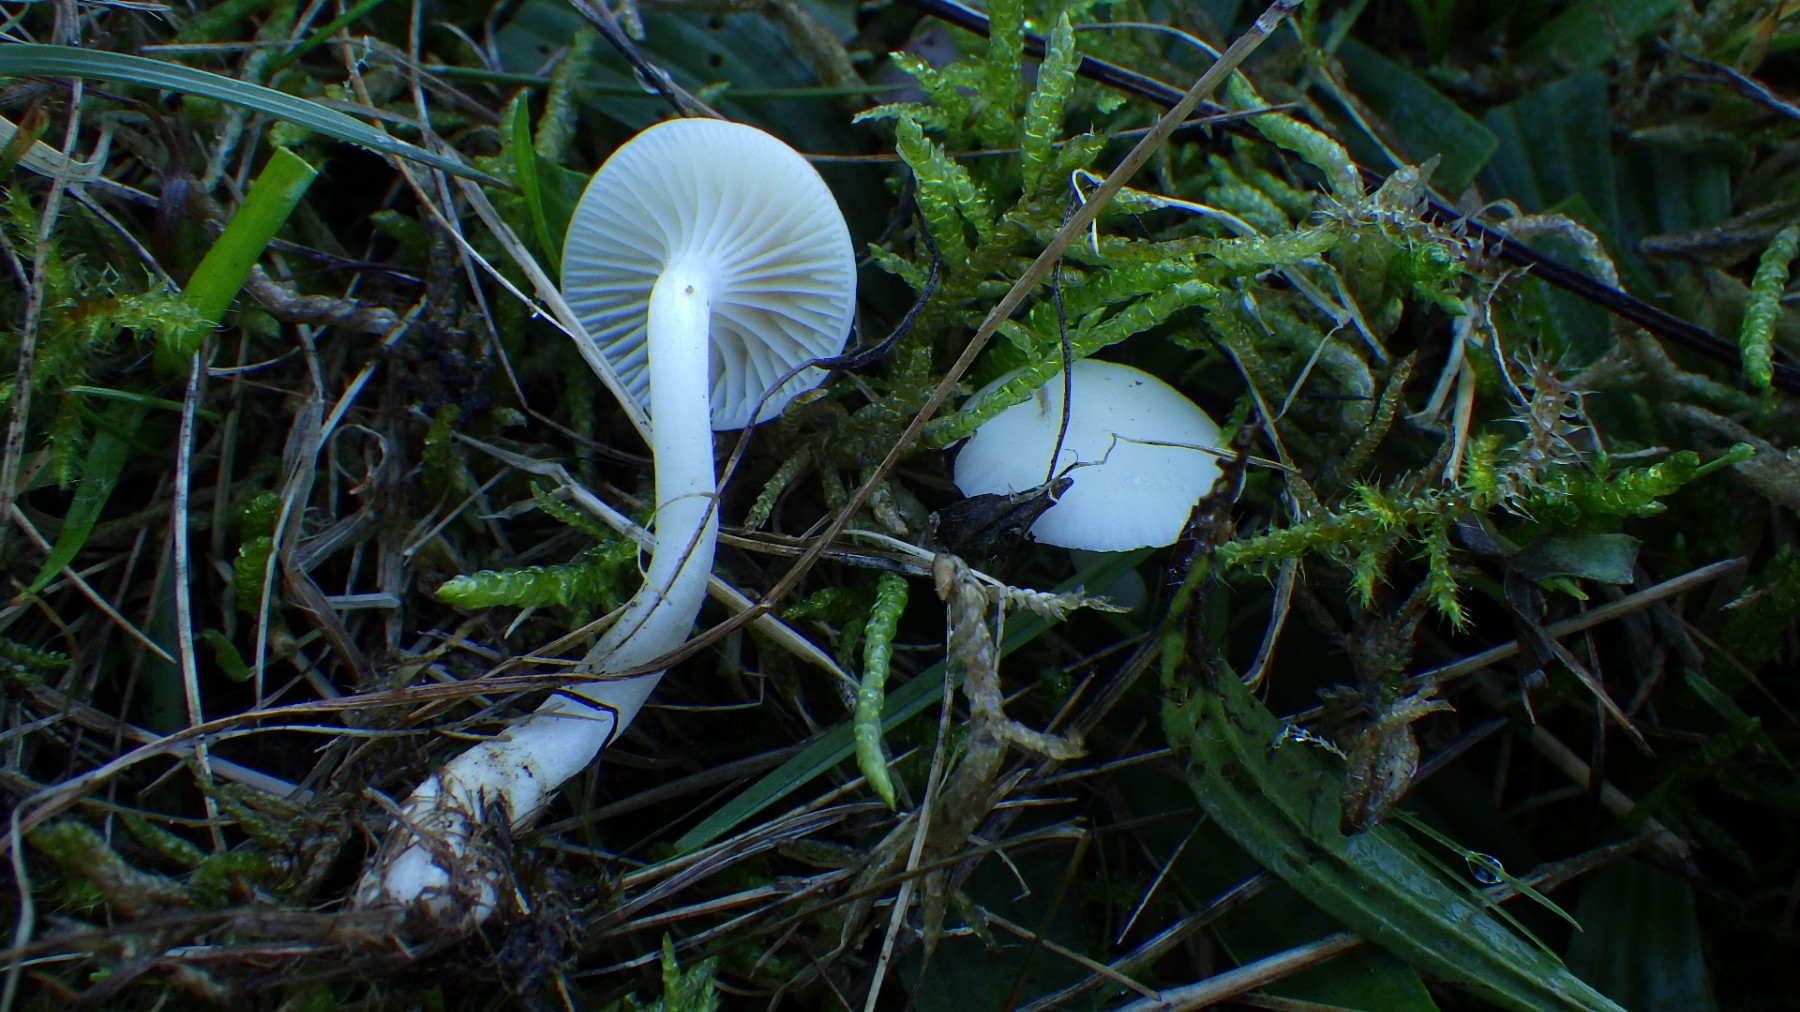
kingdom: Fungi
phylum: Basidiomycota
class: Agaricomycetes
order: Agaricales
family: Hygrophoraceae
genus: Cuphophyllus
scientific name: Cuphophyllus virgineus
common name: snehvid vokshat
